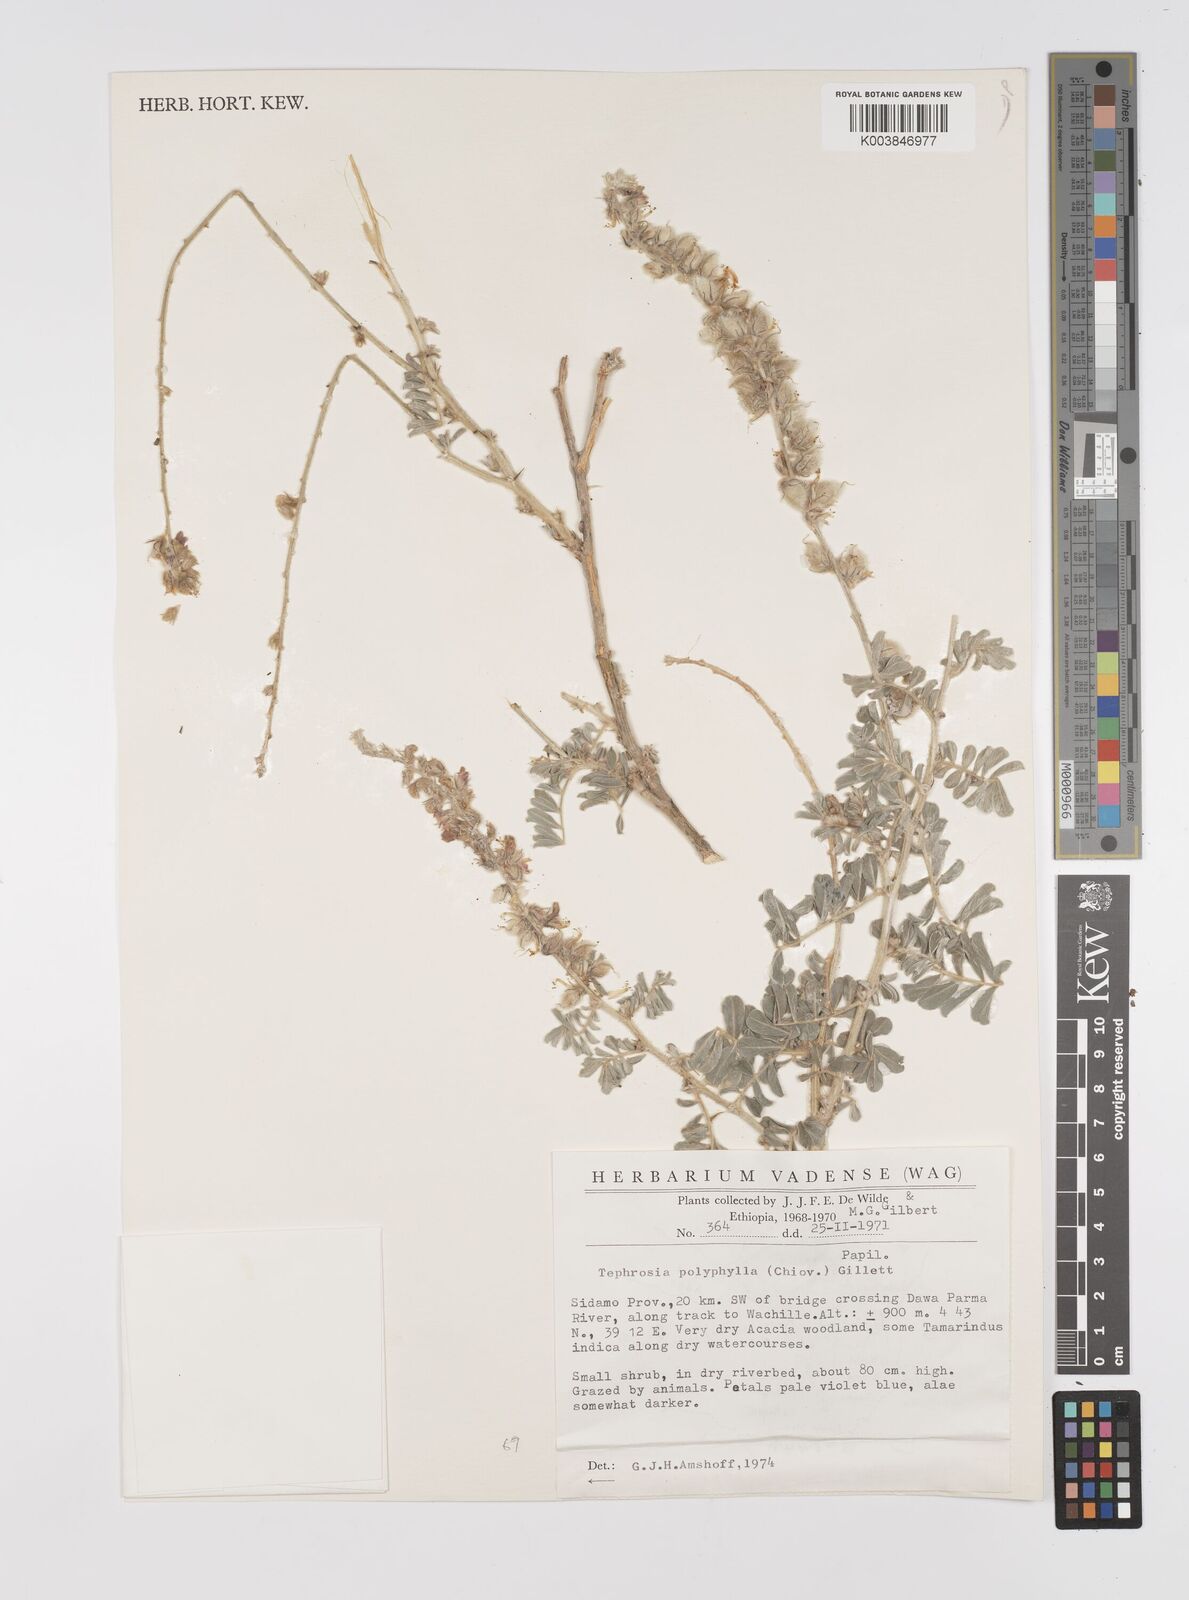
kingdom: Plantae
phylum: Tracheophyta
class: Magnoliopsida
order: Fabales
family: Fabaceae
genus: Tephrosia
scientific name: Tephrosia polyphylla
